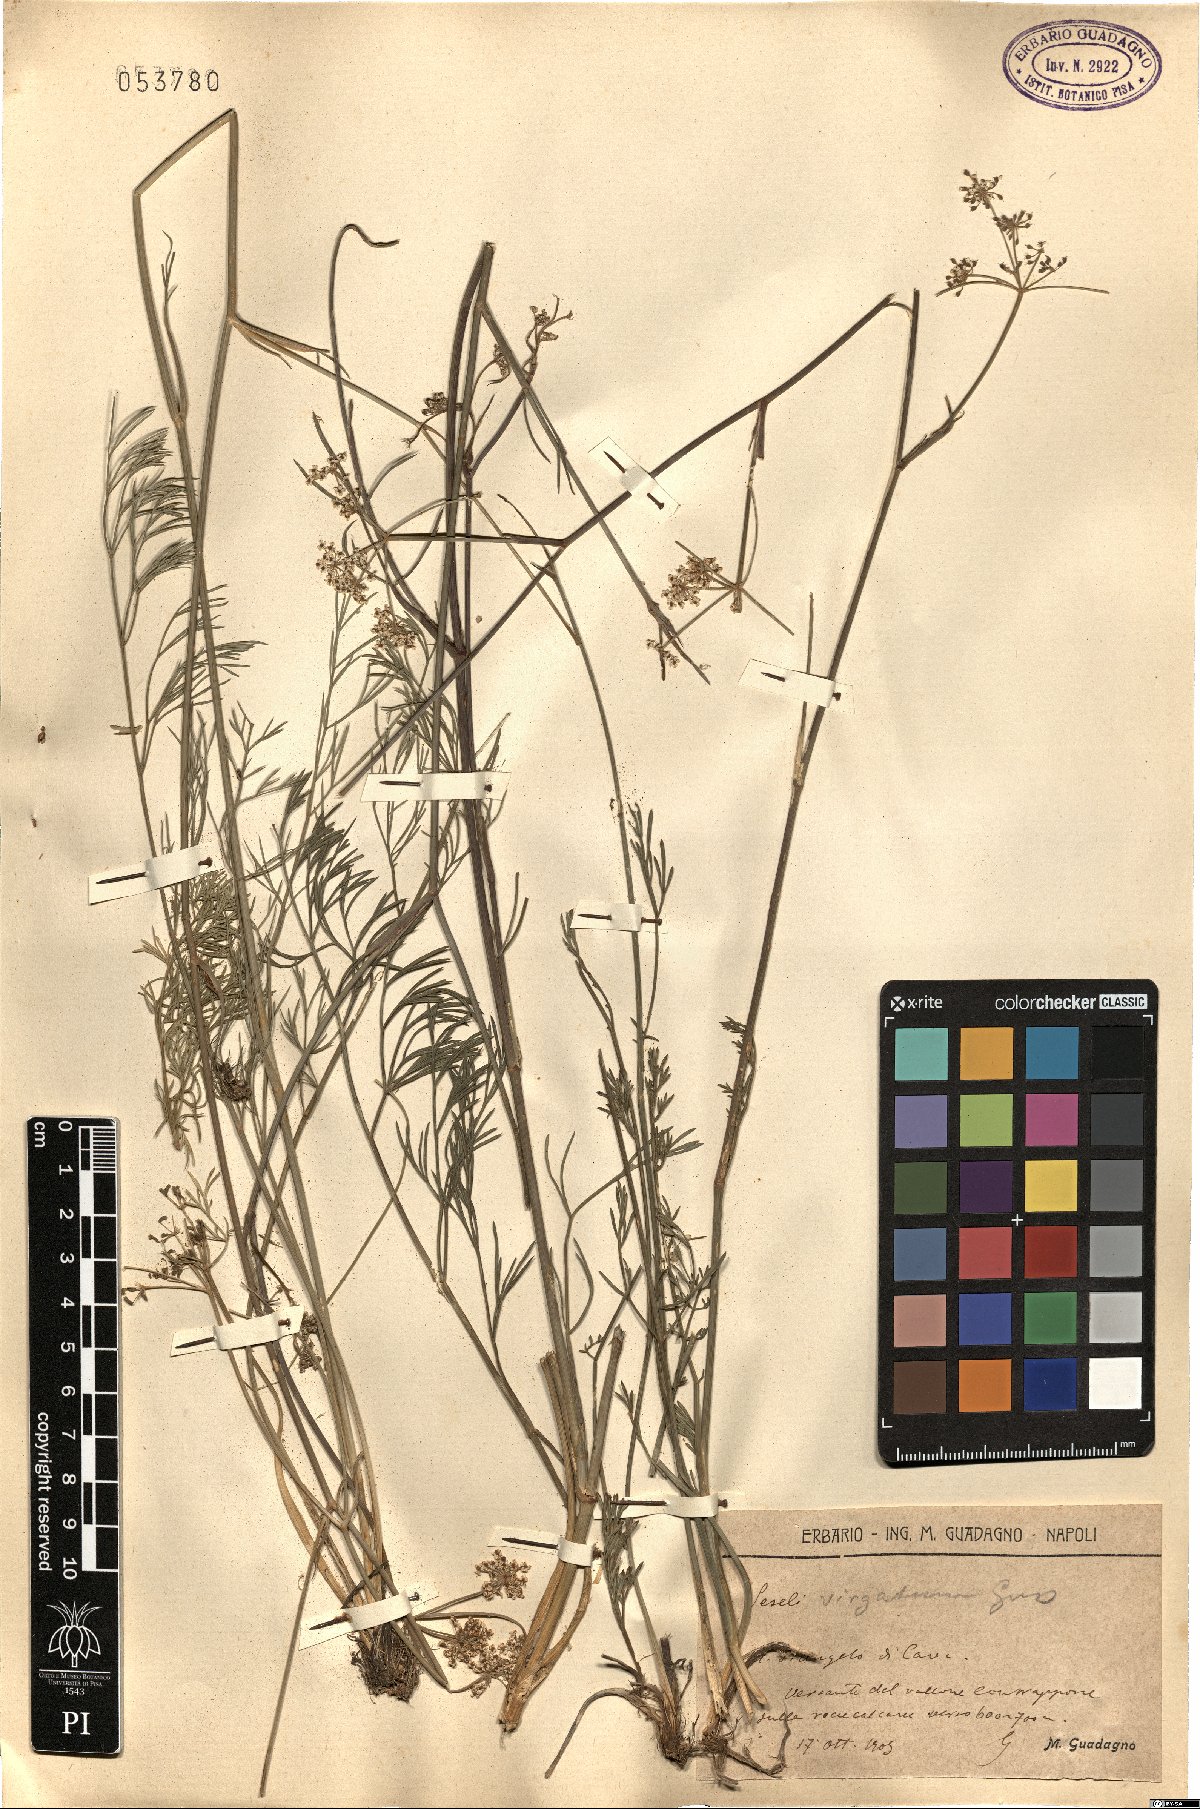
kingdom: Plantae
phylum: Tracheophyta
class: Magnoliopsida
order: Apiales
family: Apiaceae
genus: Seseli
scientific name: Seseli montanum
